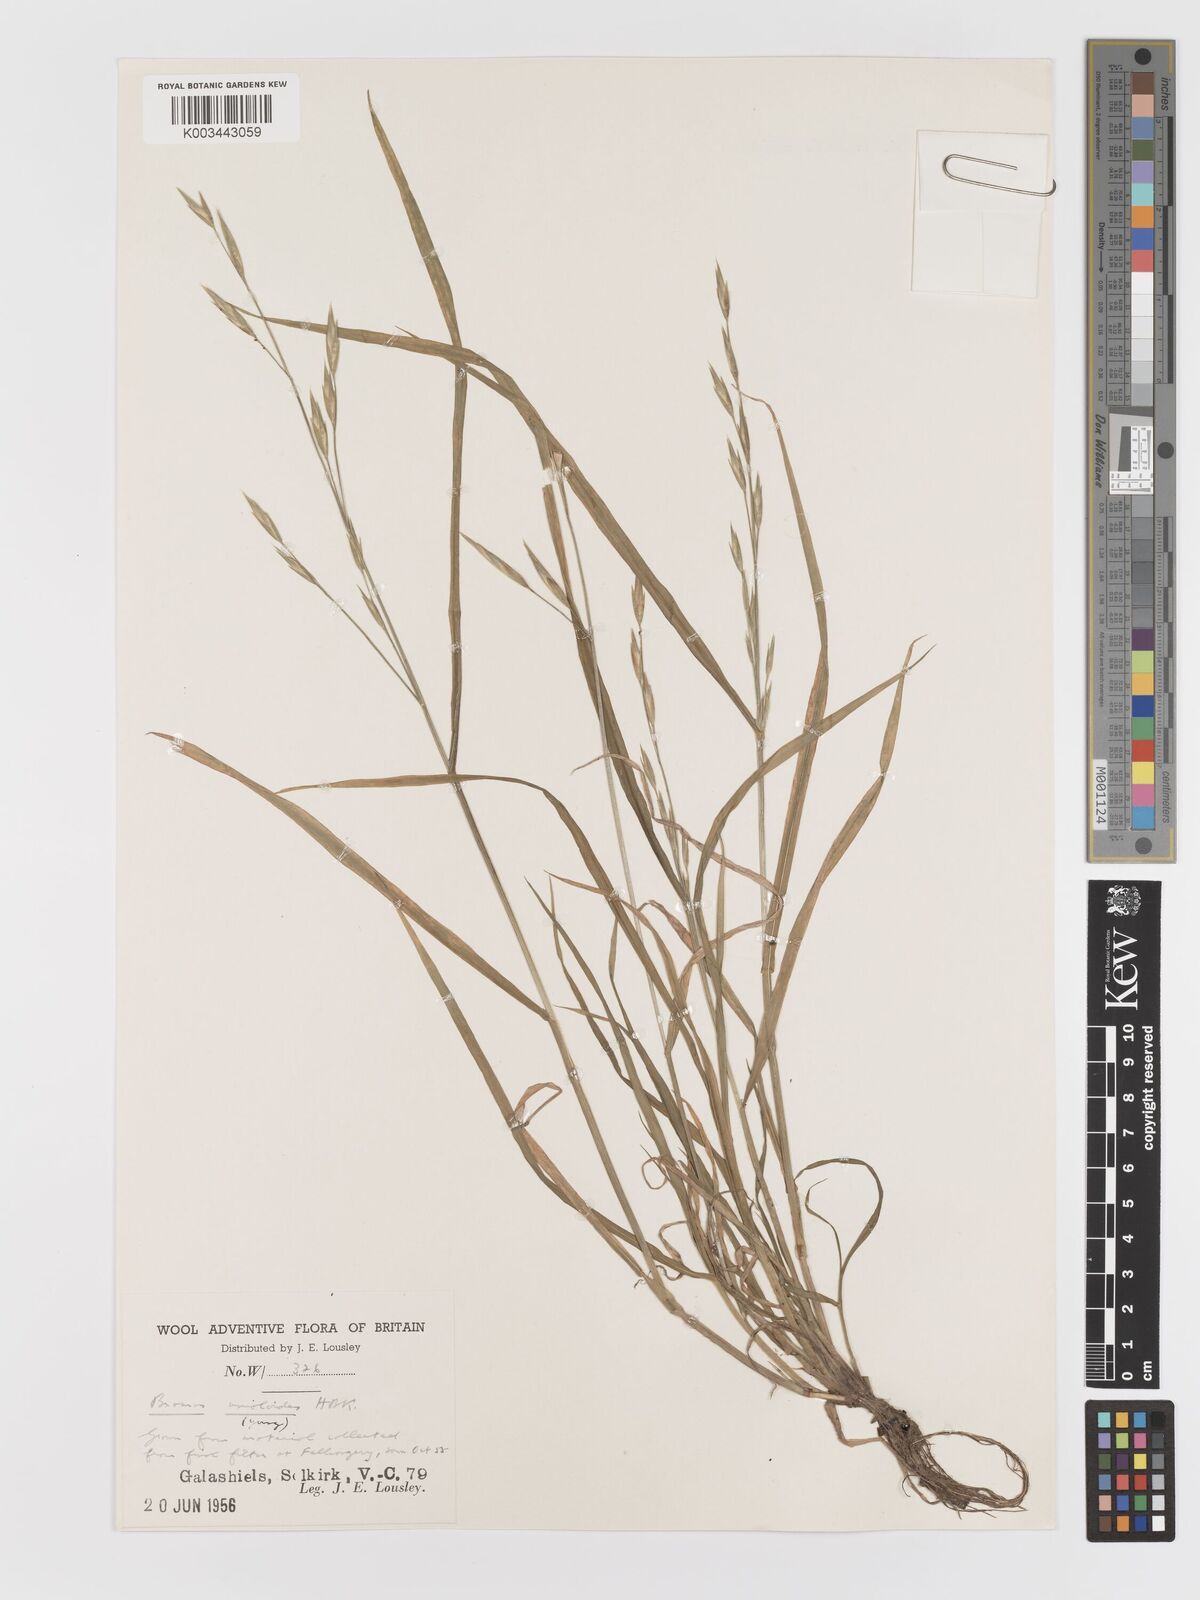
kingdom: Plantae
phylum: Tracheophyta
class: Liliopsida
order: Poales
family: Poaceae
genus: Bromus
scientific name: Bromus catharticus
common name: Rescuegrass
